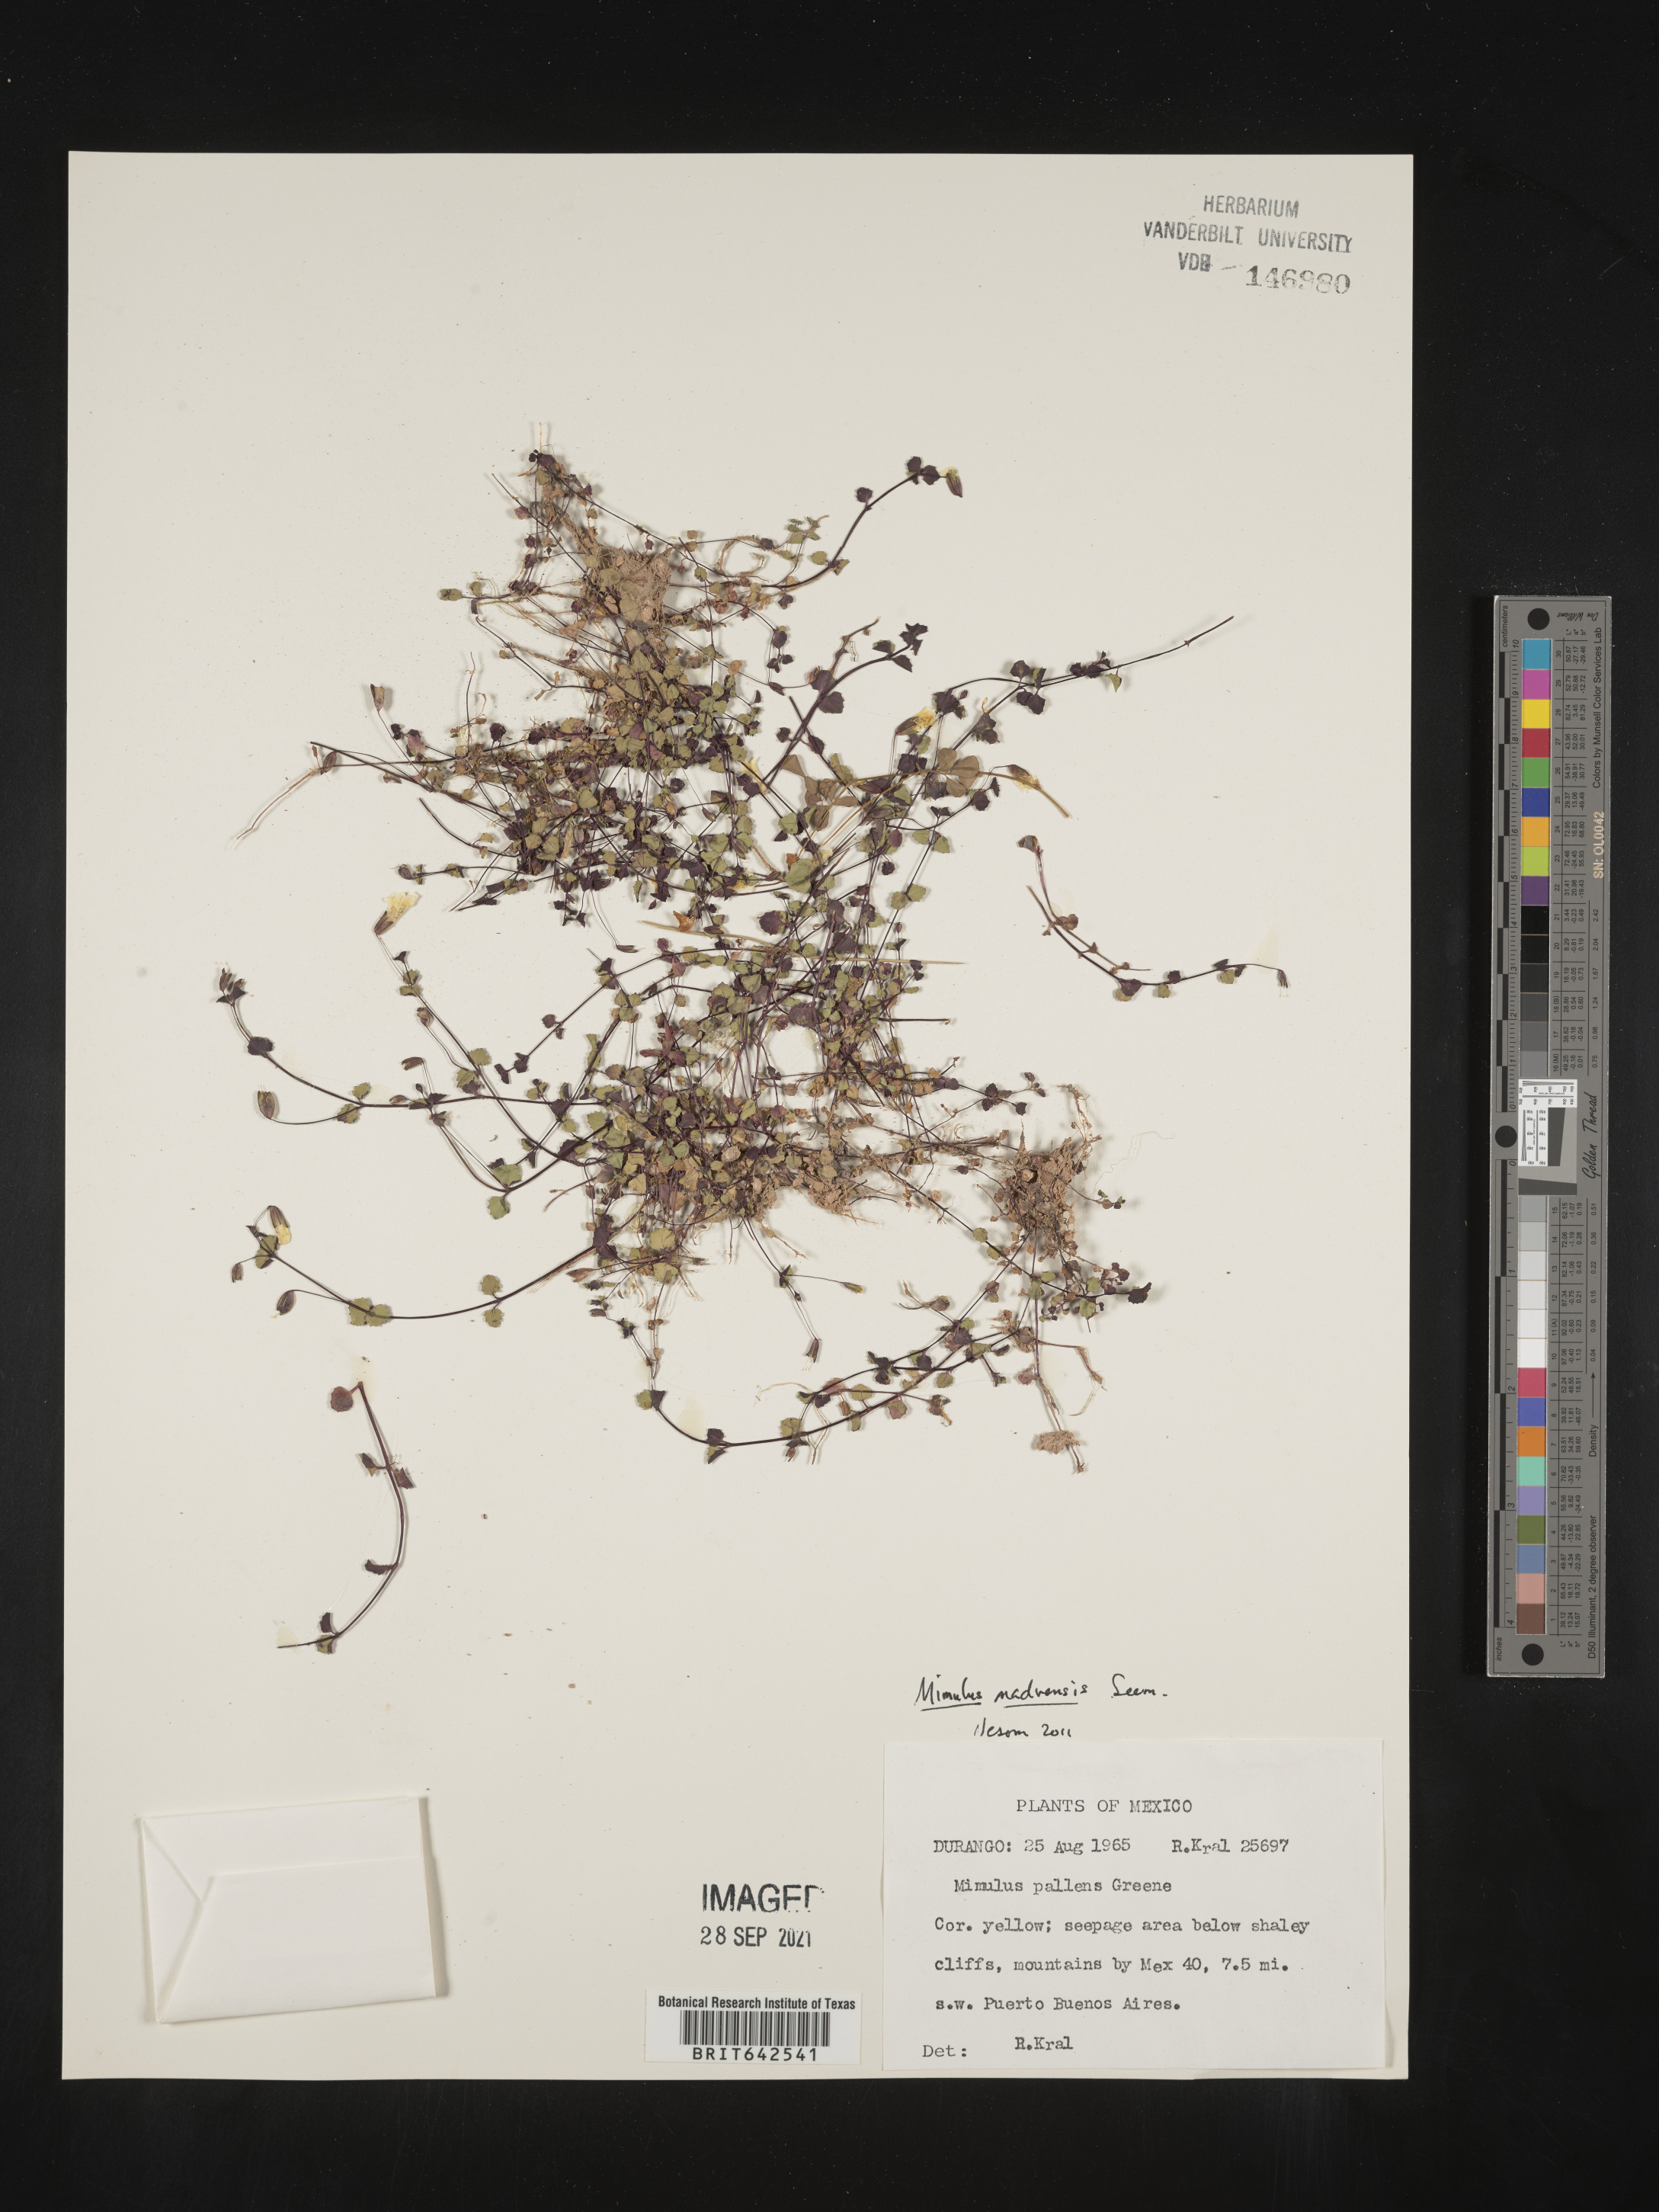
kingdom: Plantae
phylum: Tracheophyta
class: Magnoliopsida
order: Lamiales
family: Phrymaceae
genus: Mimulus
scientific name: Mimulus
